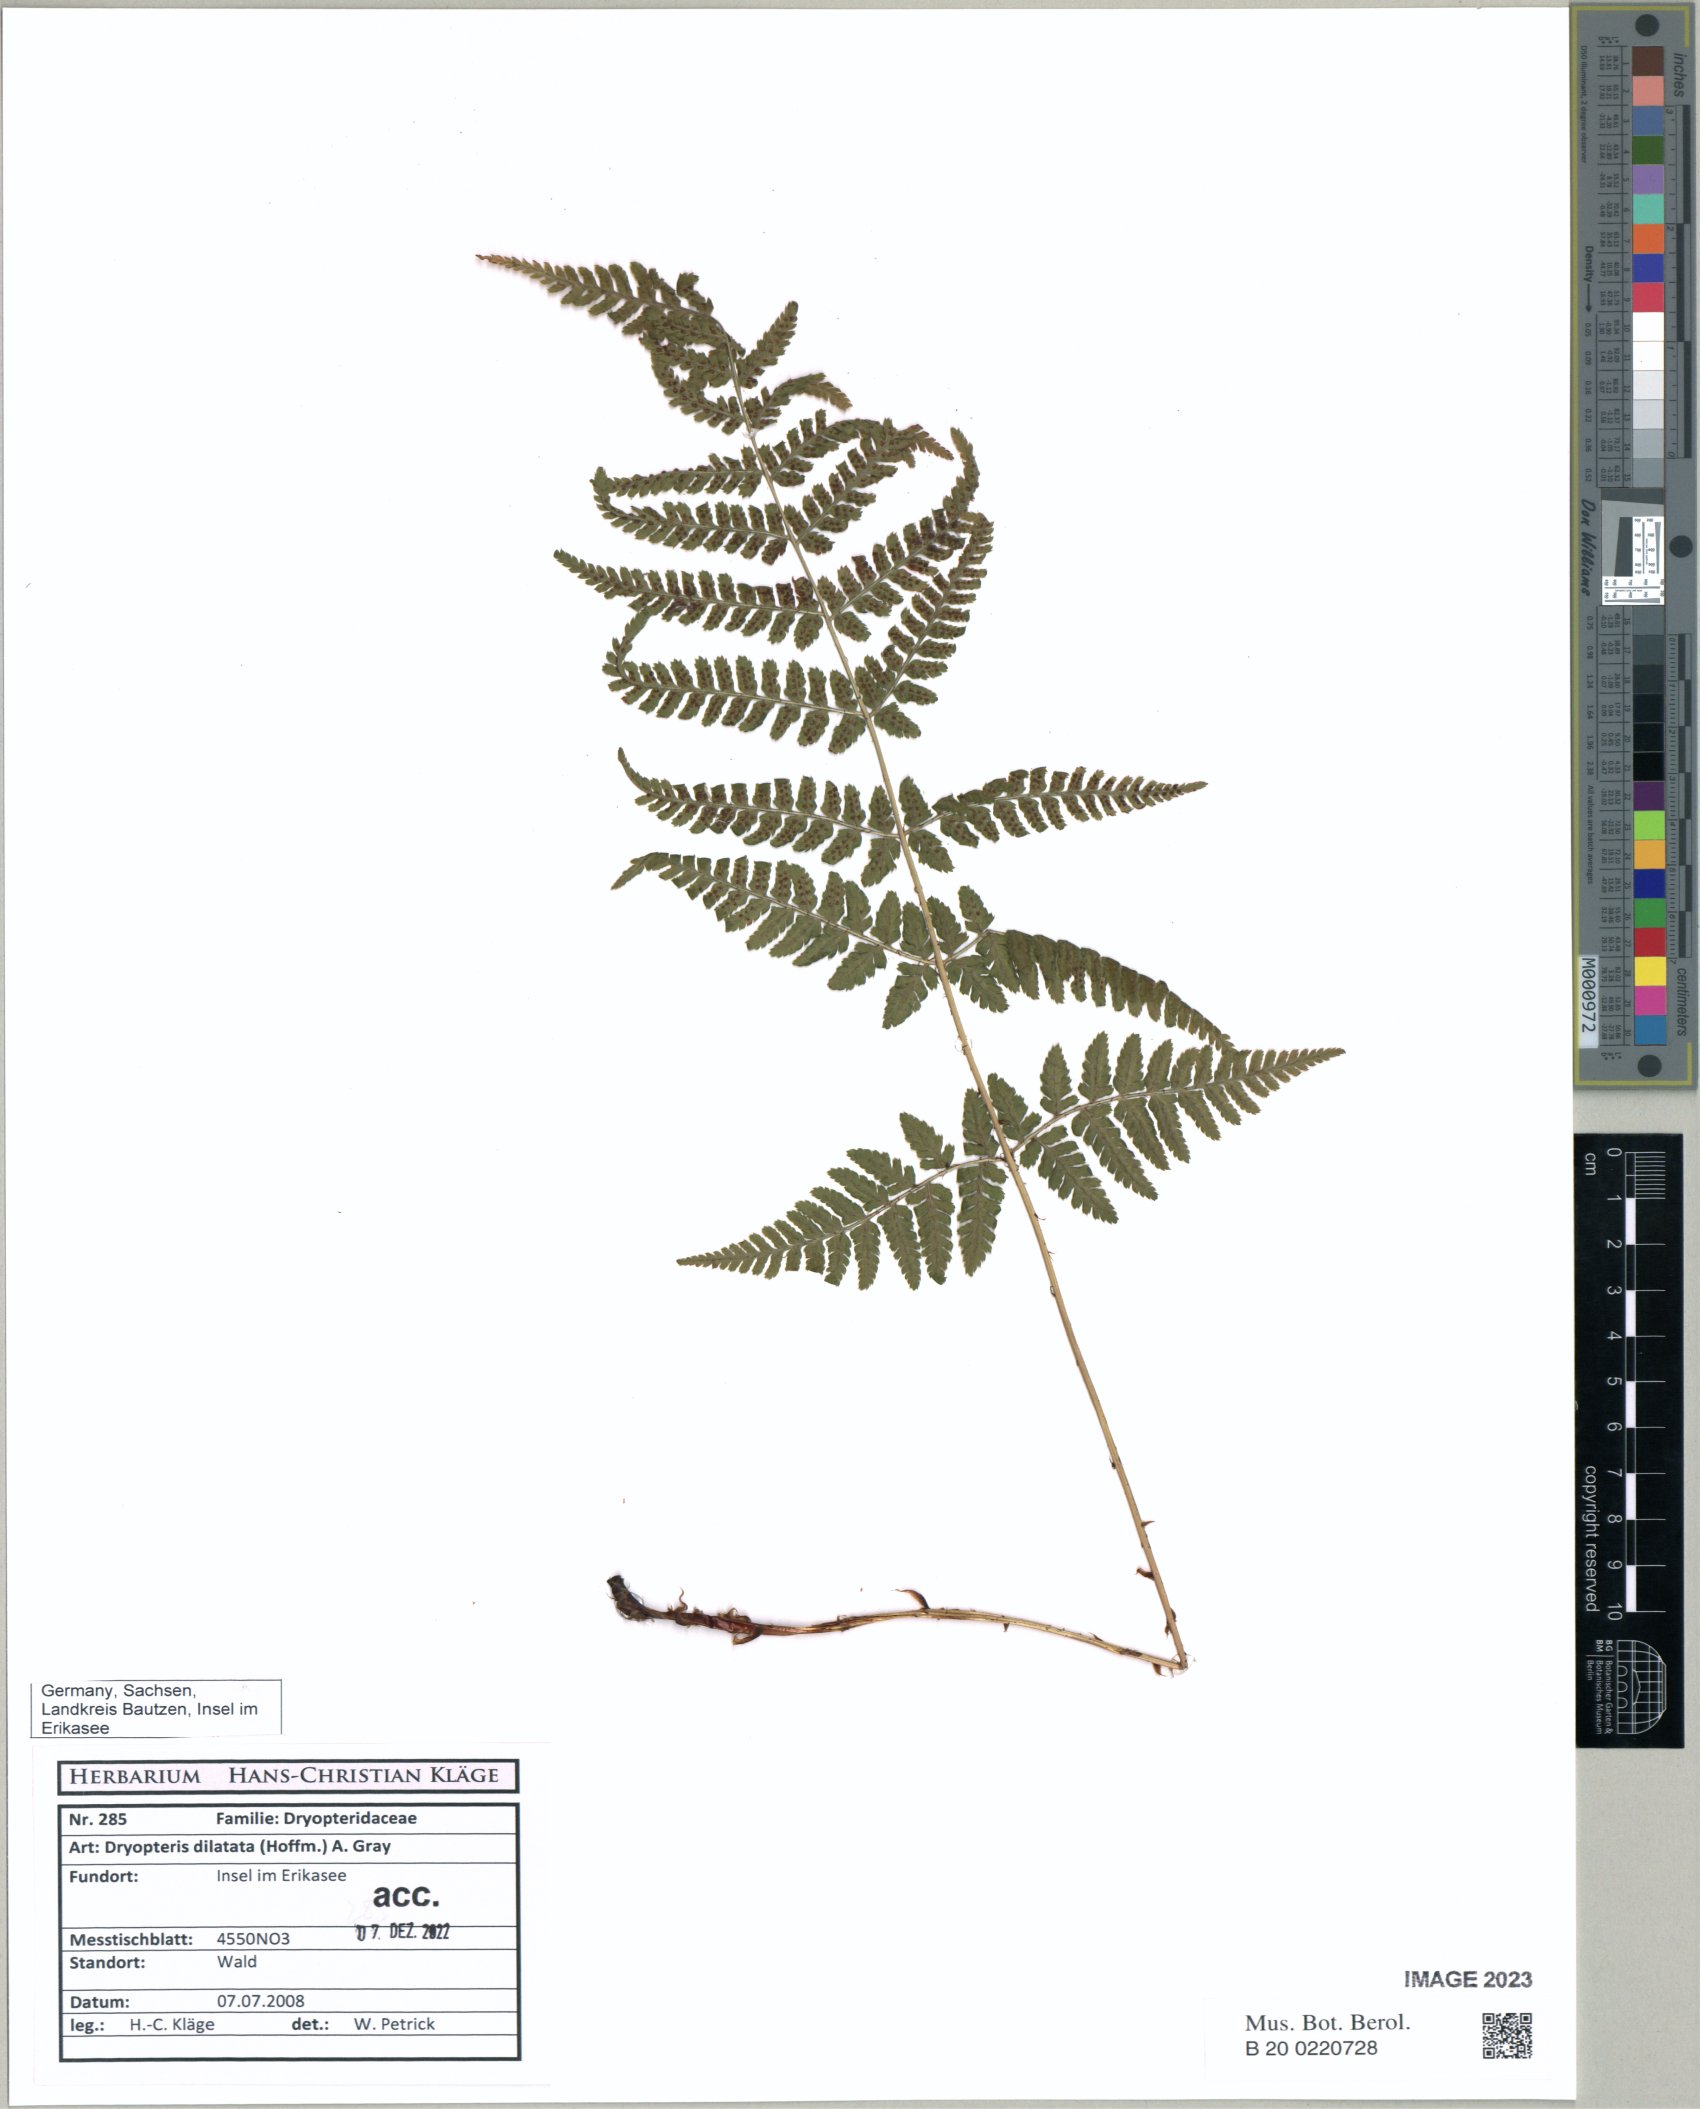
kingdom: Plantae
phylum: Tracheophyta
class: Polypodiopsida
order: Polypodiales
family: Dryopteridaceae
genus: Dryopteris
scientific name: Dryopteris dilatata
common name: Broad buckler-fern
